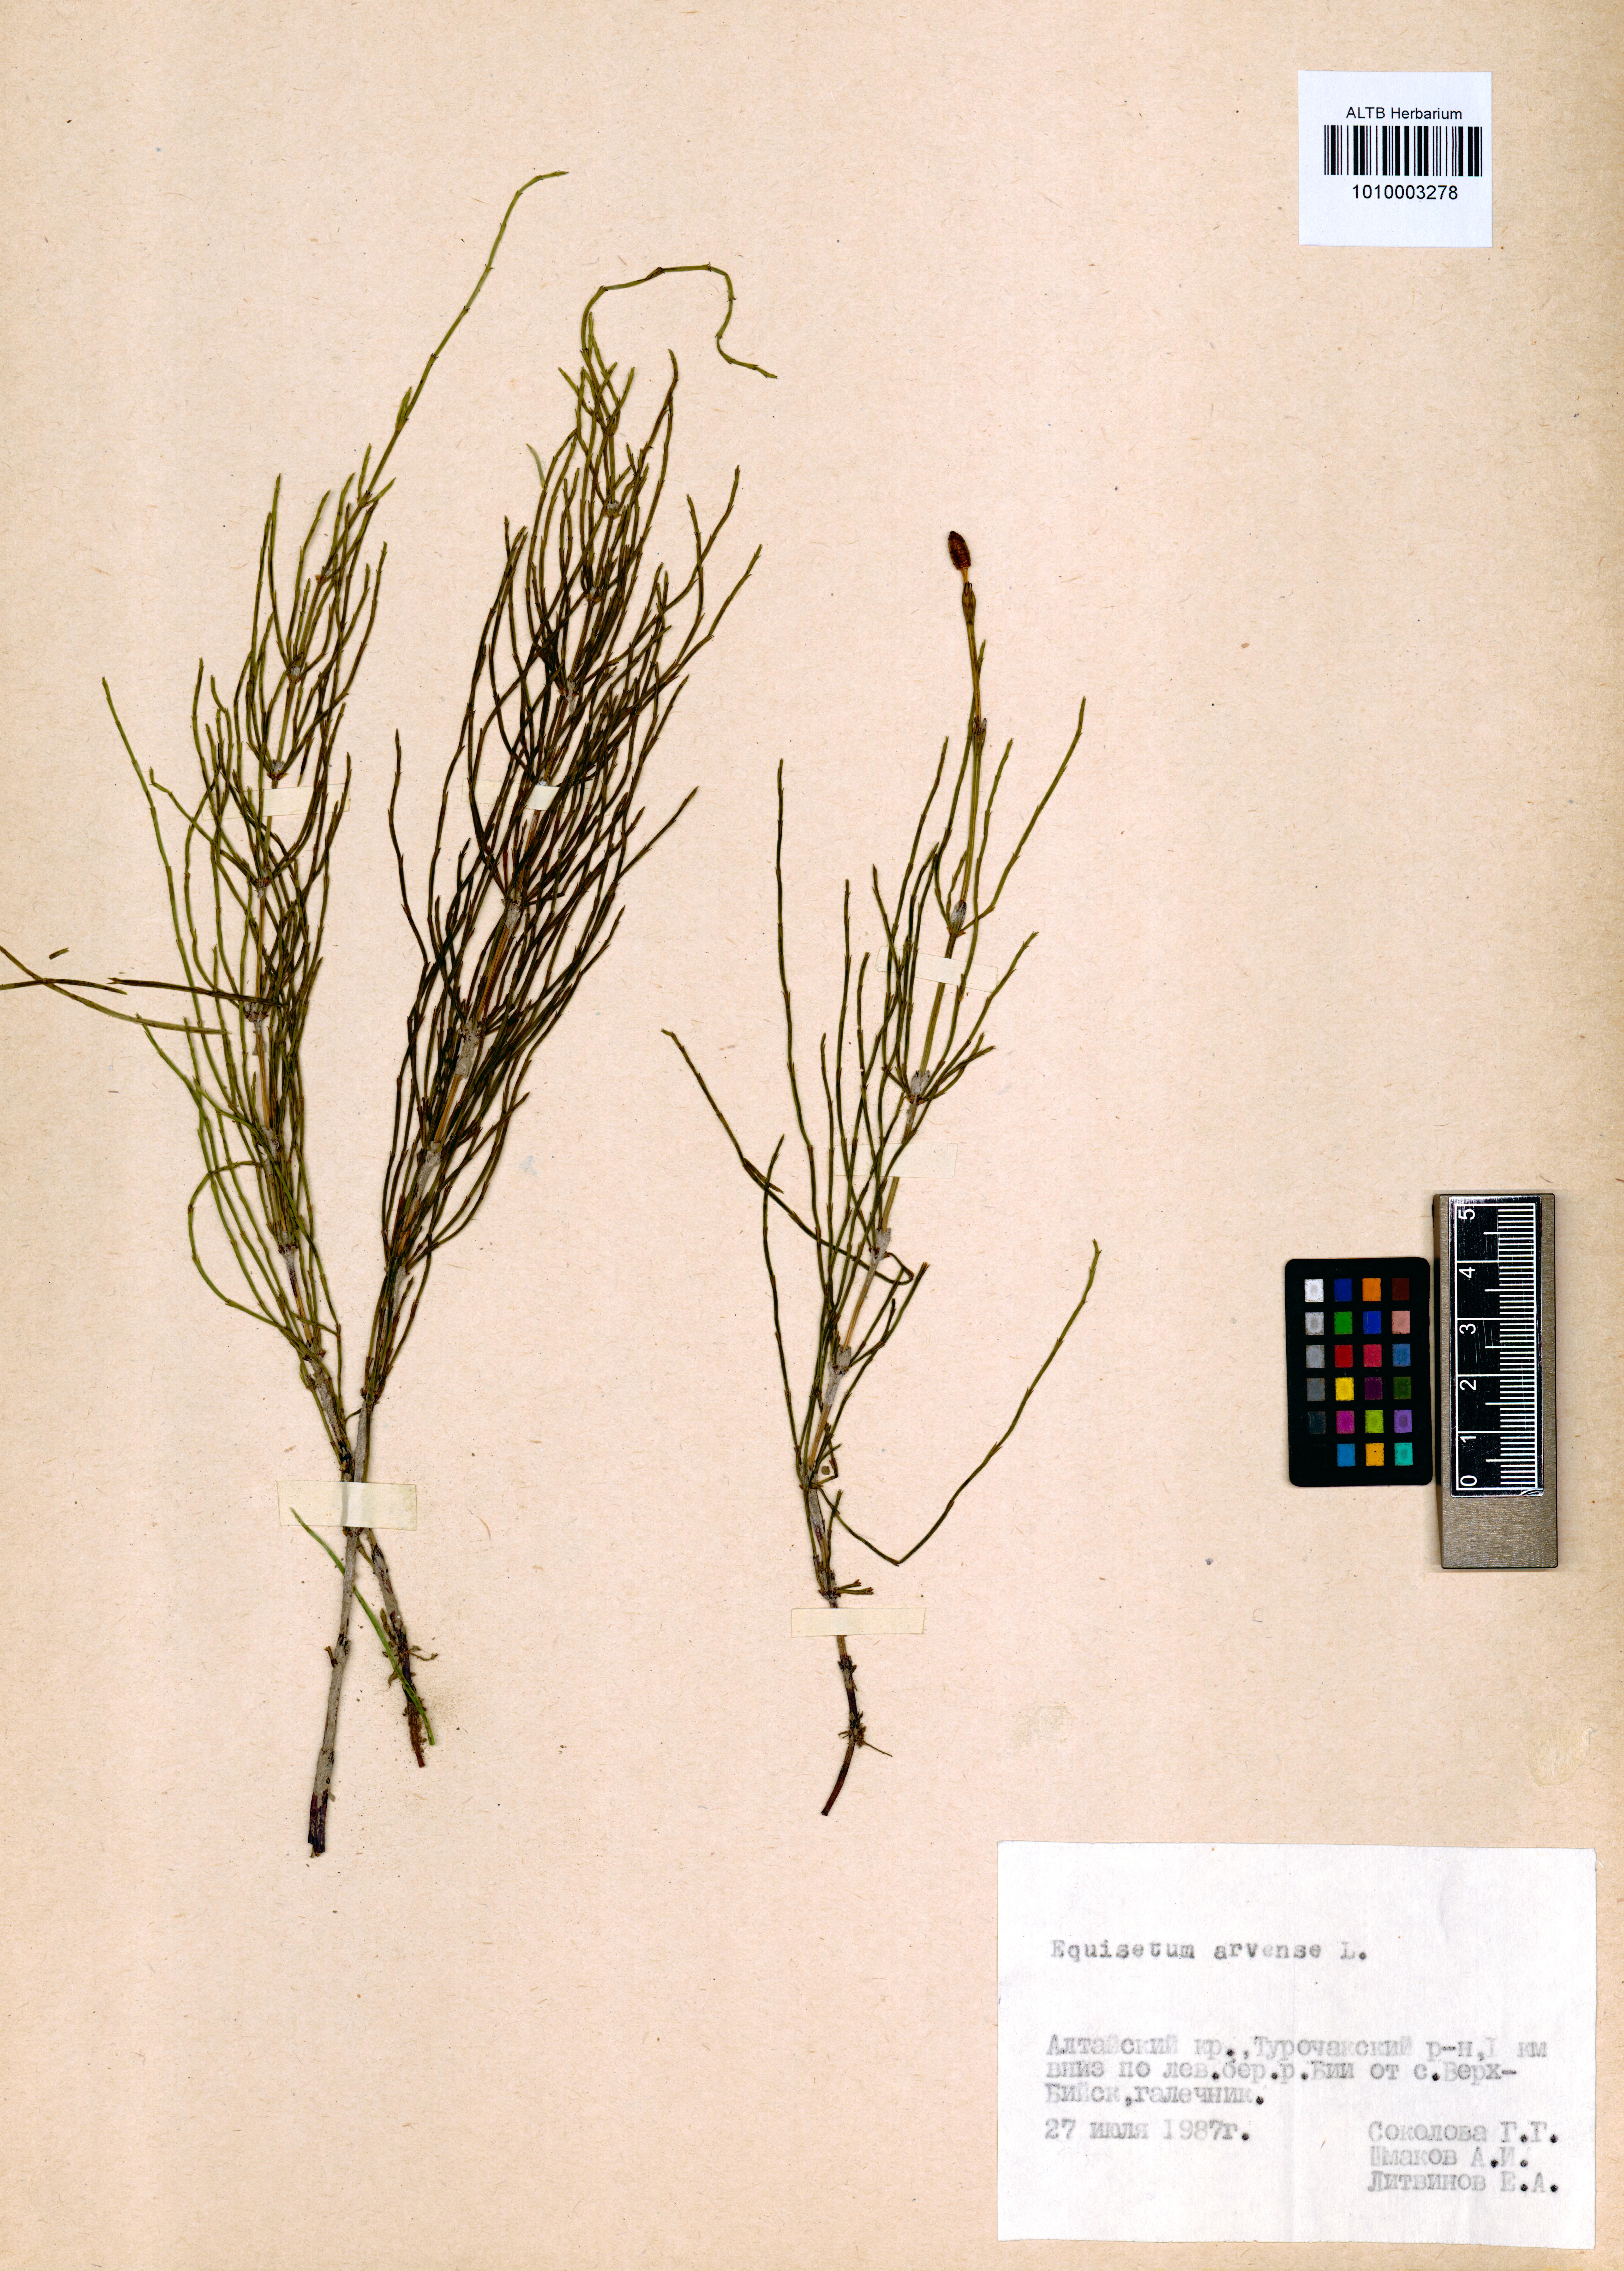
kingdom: Plantae
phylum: Tracheophyta
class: Polypodiopsida
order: Equisetales
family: Equisetaceae
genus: Equisetum
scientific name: Equisetum arvense
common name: Field horsetail
